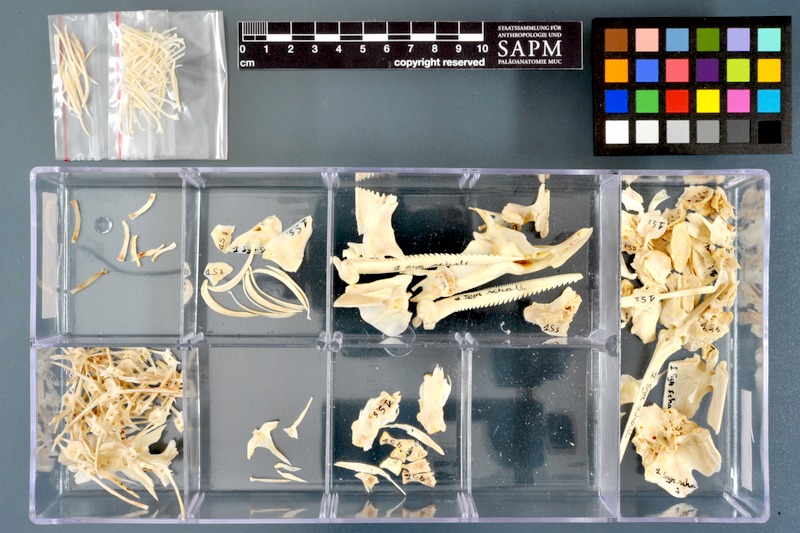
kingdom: Animalia
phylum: Chordata
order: Siluriformes
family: Mochokidae
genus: Synodontis
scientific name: Synodontis schall
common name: Wahrindi
